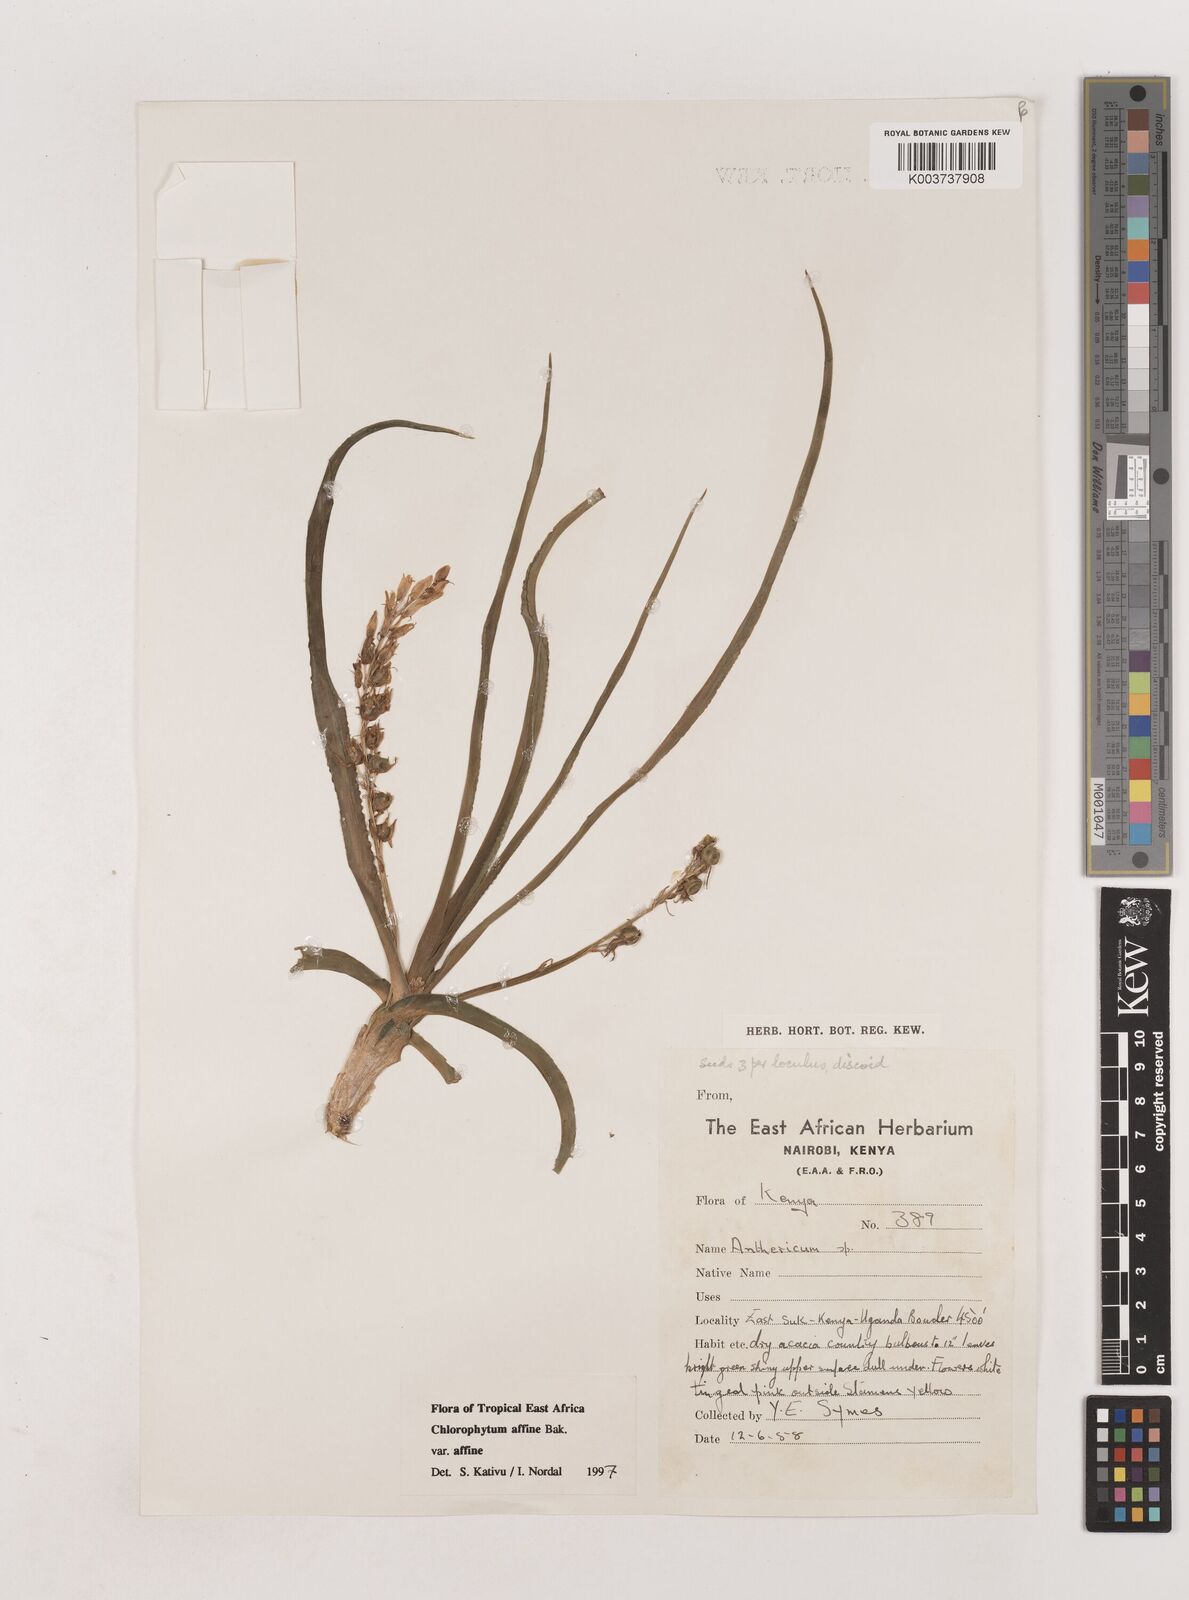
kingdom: Plantae
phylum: Tracheophyta
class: Liliopsida
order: Asparagales
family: Asparagaceae
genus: Chlorophytum
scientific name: Chlorophytum affine
